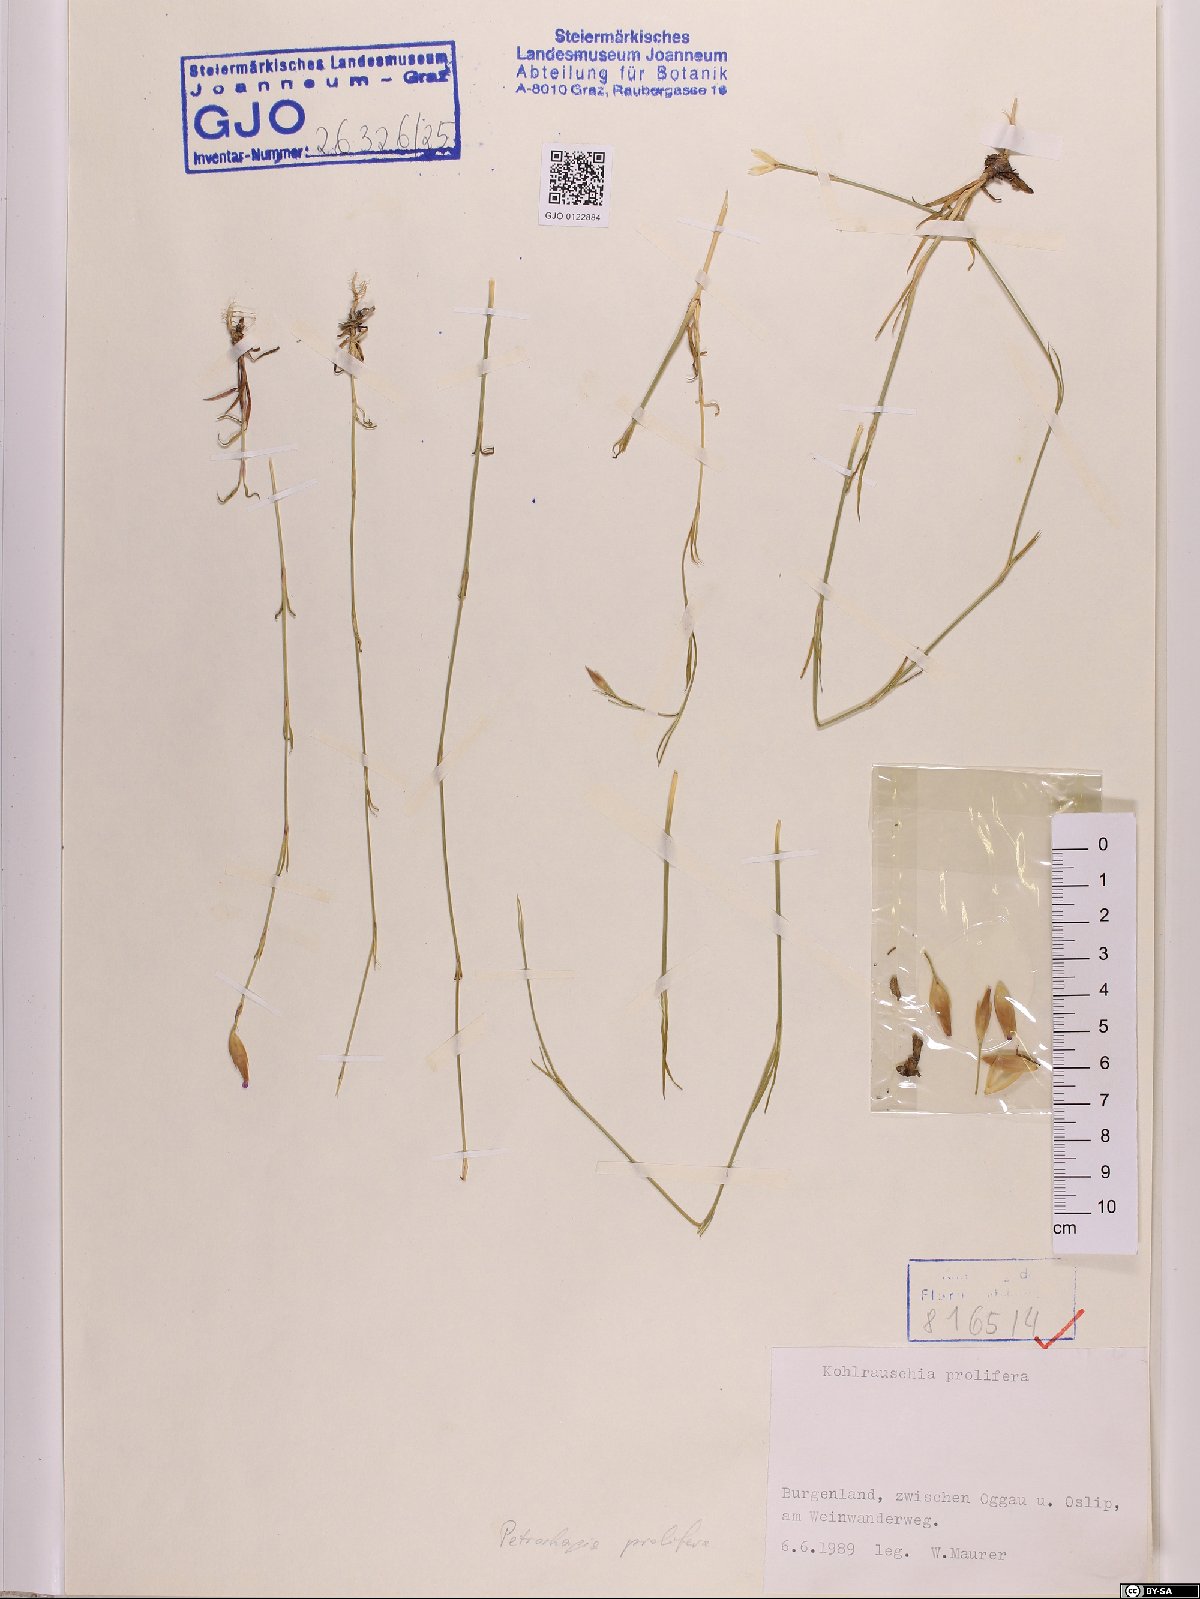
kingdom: Plantae
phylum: Tracheophyta
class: Magnoliopsida
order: Caryophyllales
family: Caryophyllaceae
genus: Petrorhagia
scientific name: Petrorhagia prolifera
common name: Proliferous pink
